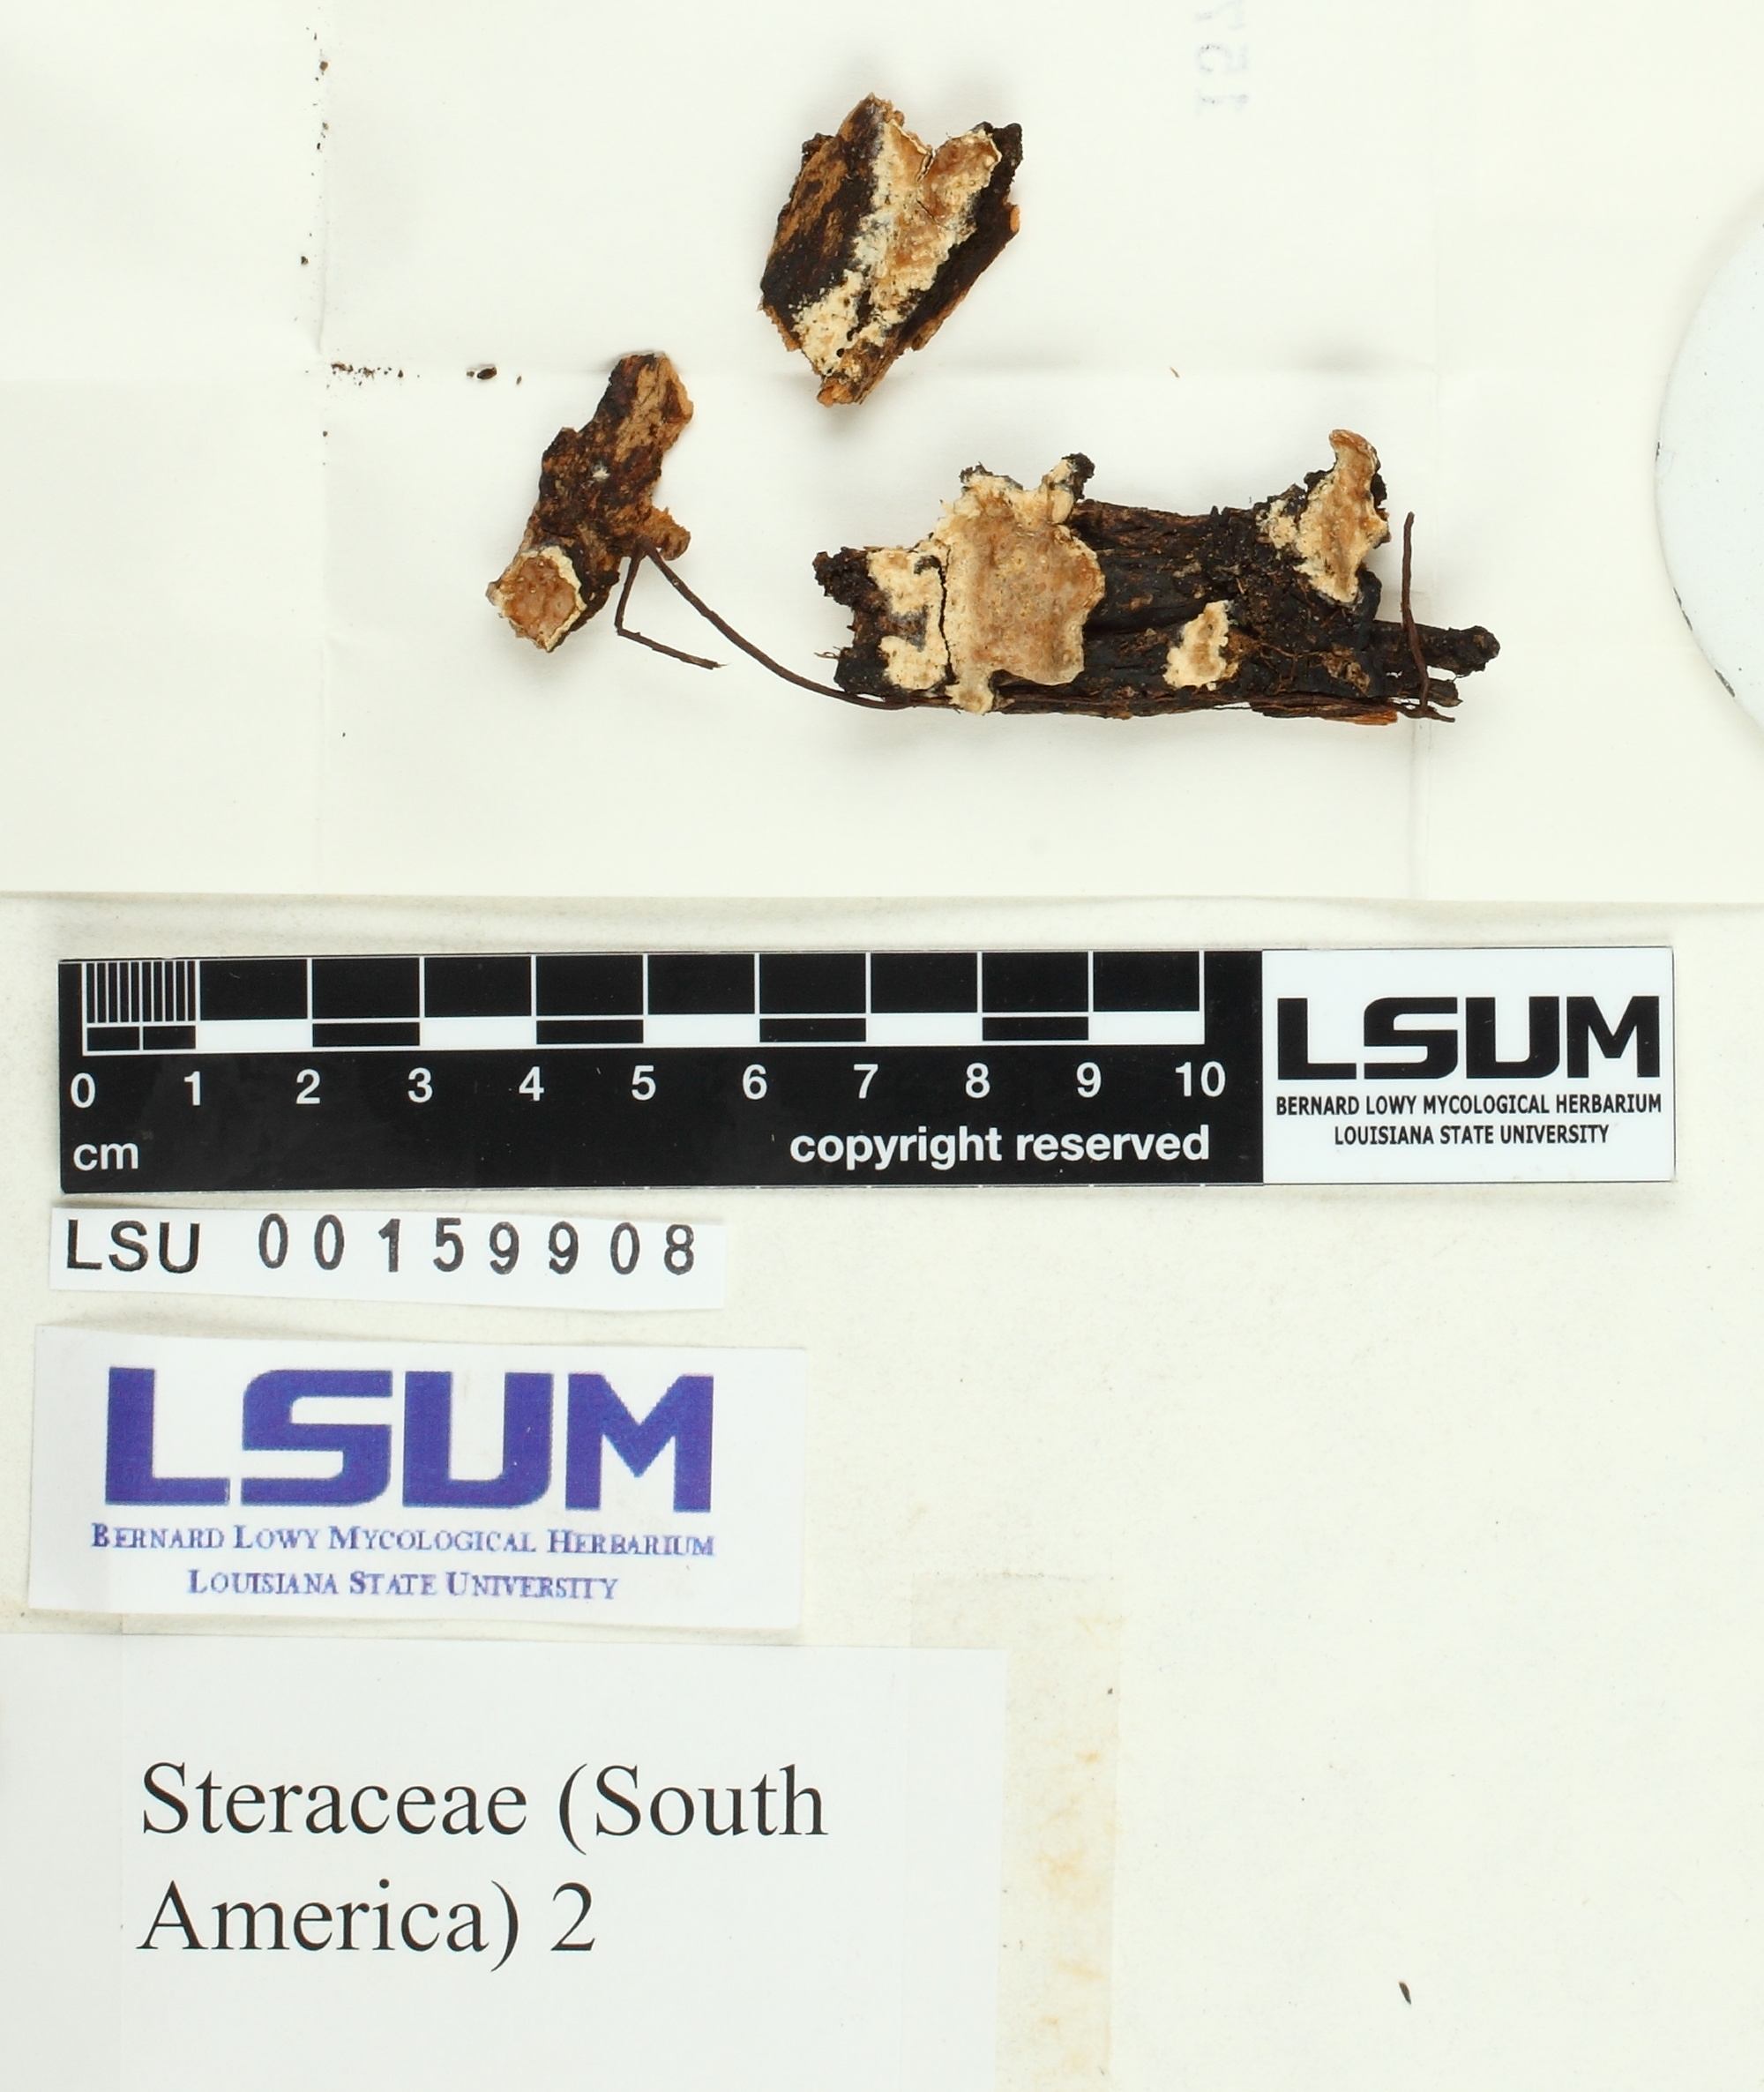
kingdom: Fungi
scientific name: Fungi
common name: Fungi
